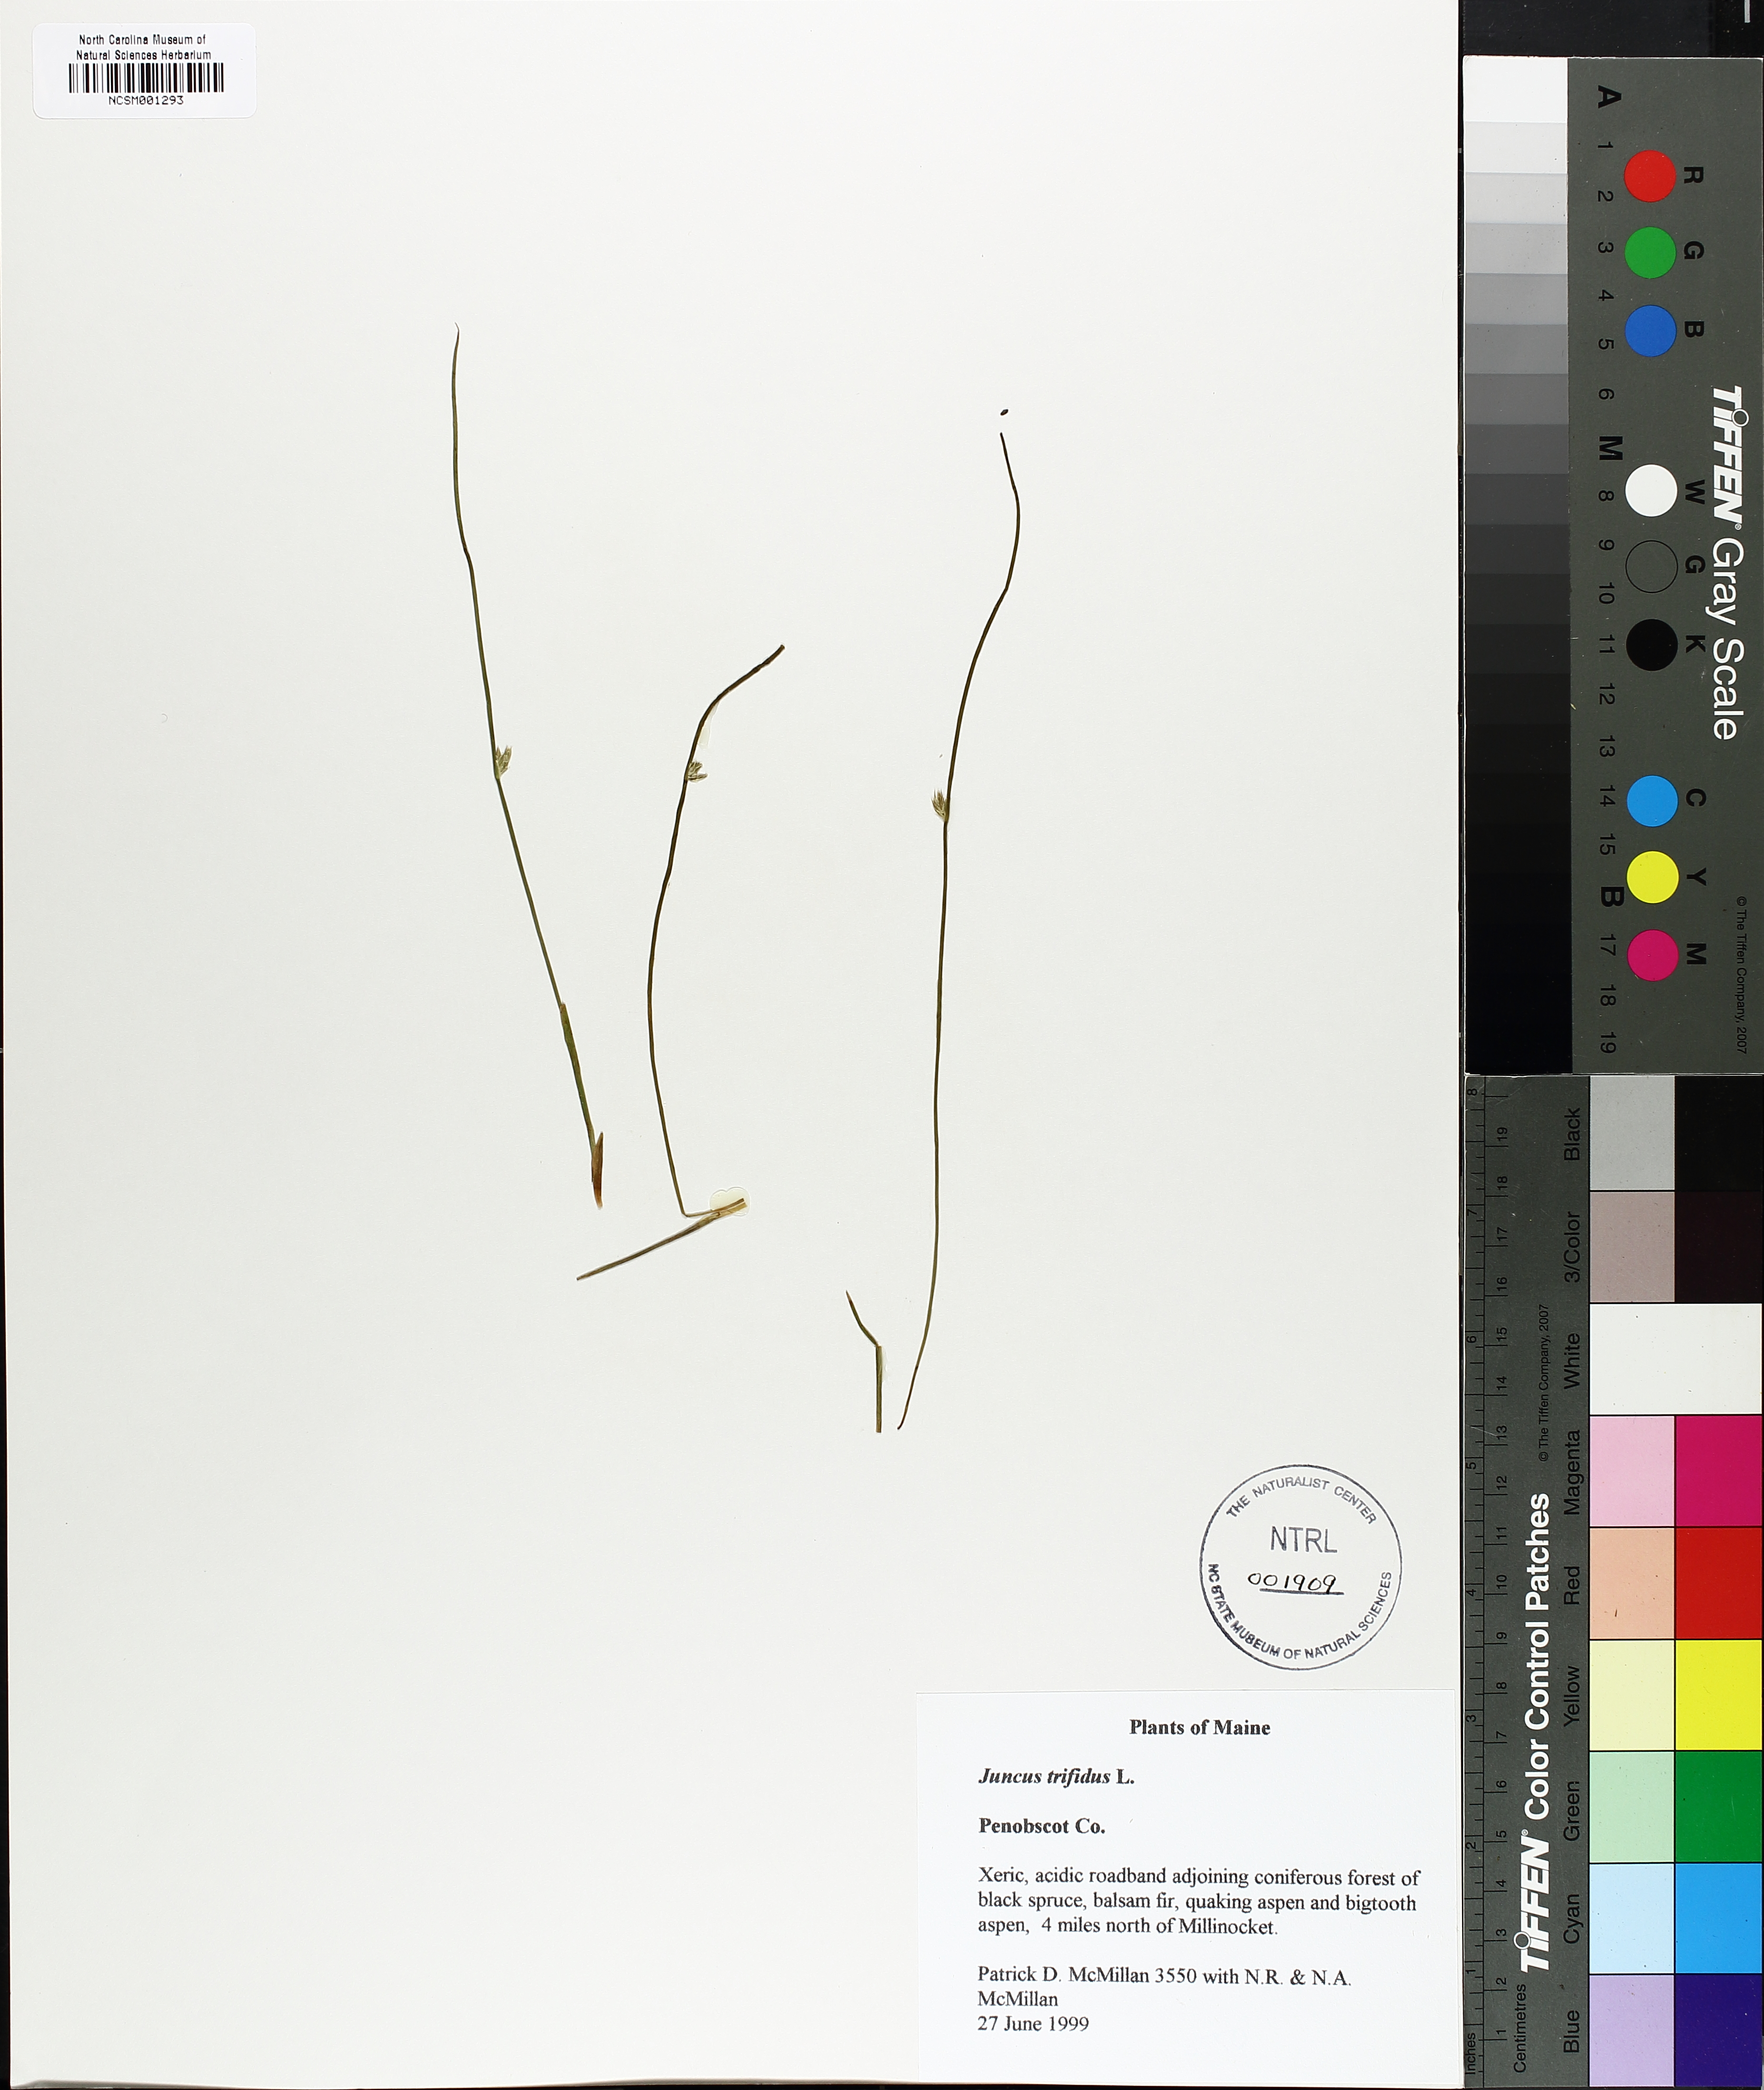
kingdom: Plantae
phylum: Tracheophyta
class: Liliopsida
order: Poales
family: Juncaceae
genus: Oreojuncus
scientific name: Oreojuncus trifidus
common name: Highland rush
